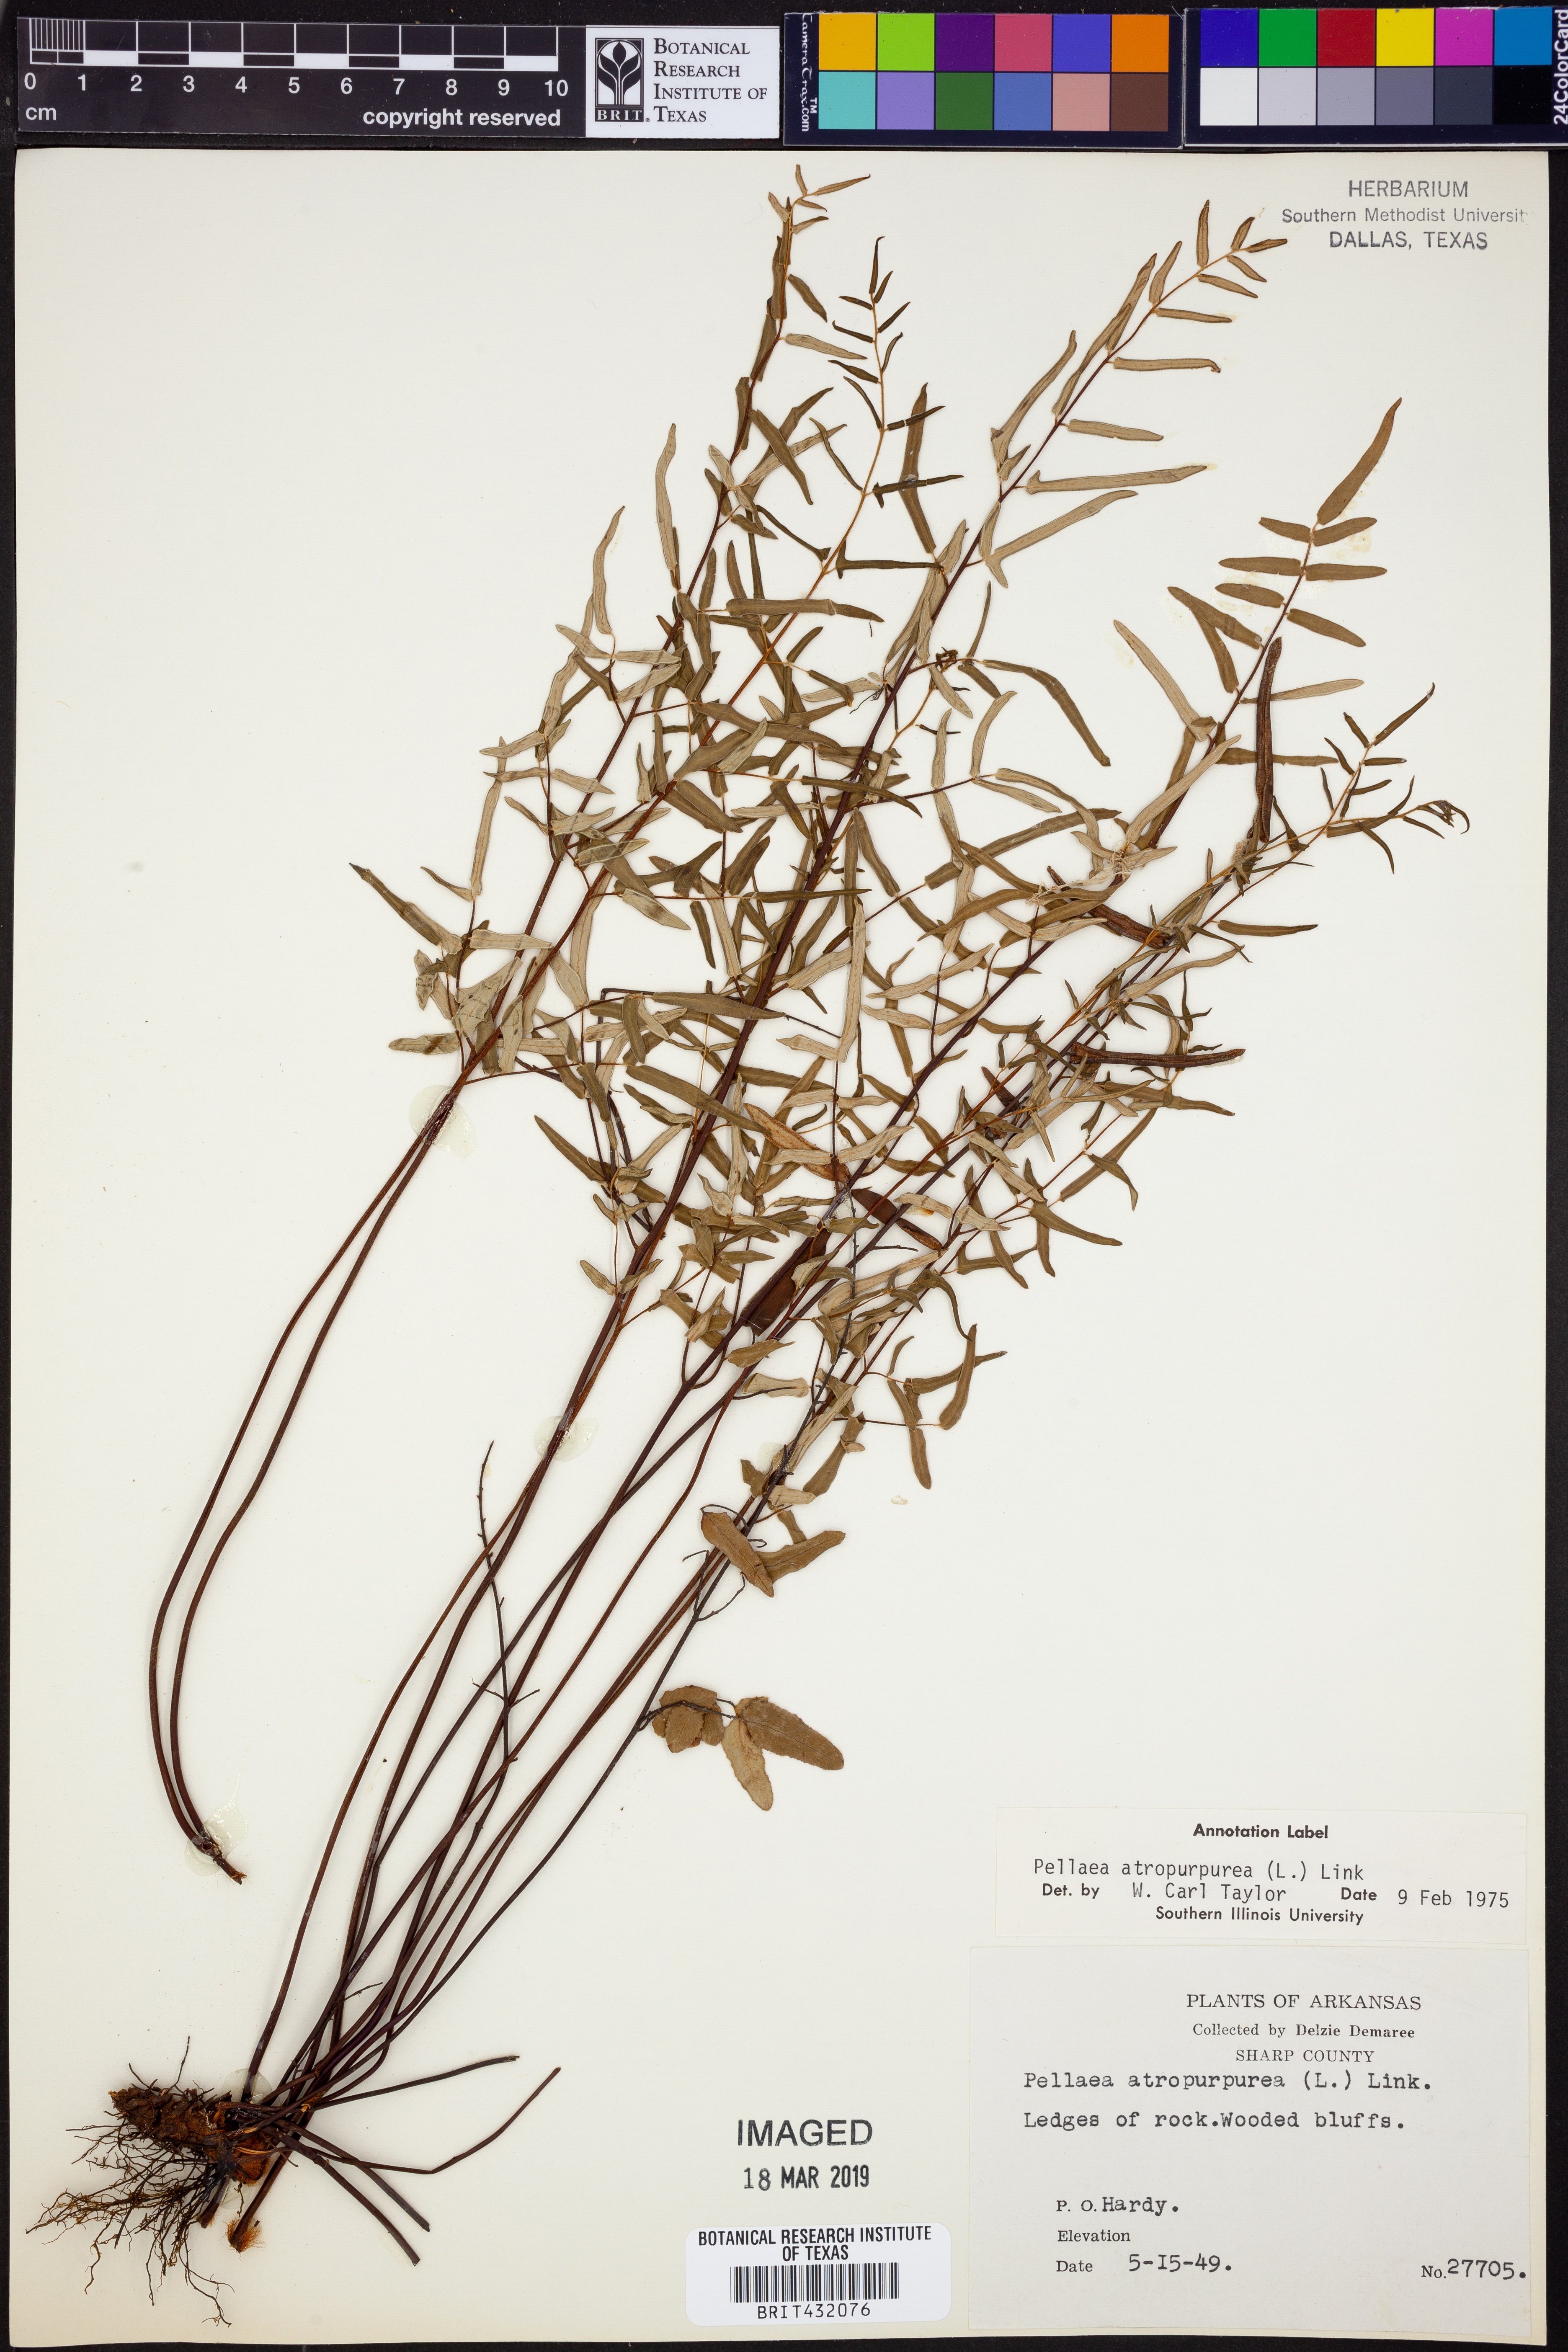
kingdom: Plantae
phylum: Tracheophyta
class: Polypodiopsida
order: Polypodiales
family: Pteridaceae
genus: Pellaea
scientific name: Pellaea atropurpurea
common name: Hairy cliffbrake
